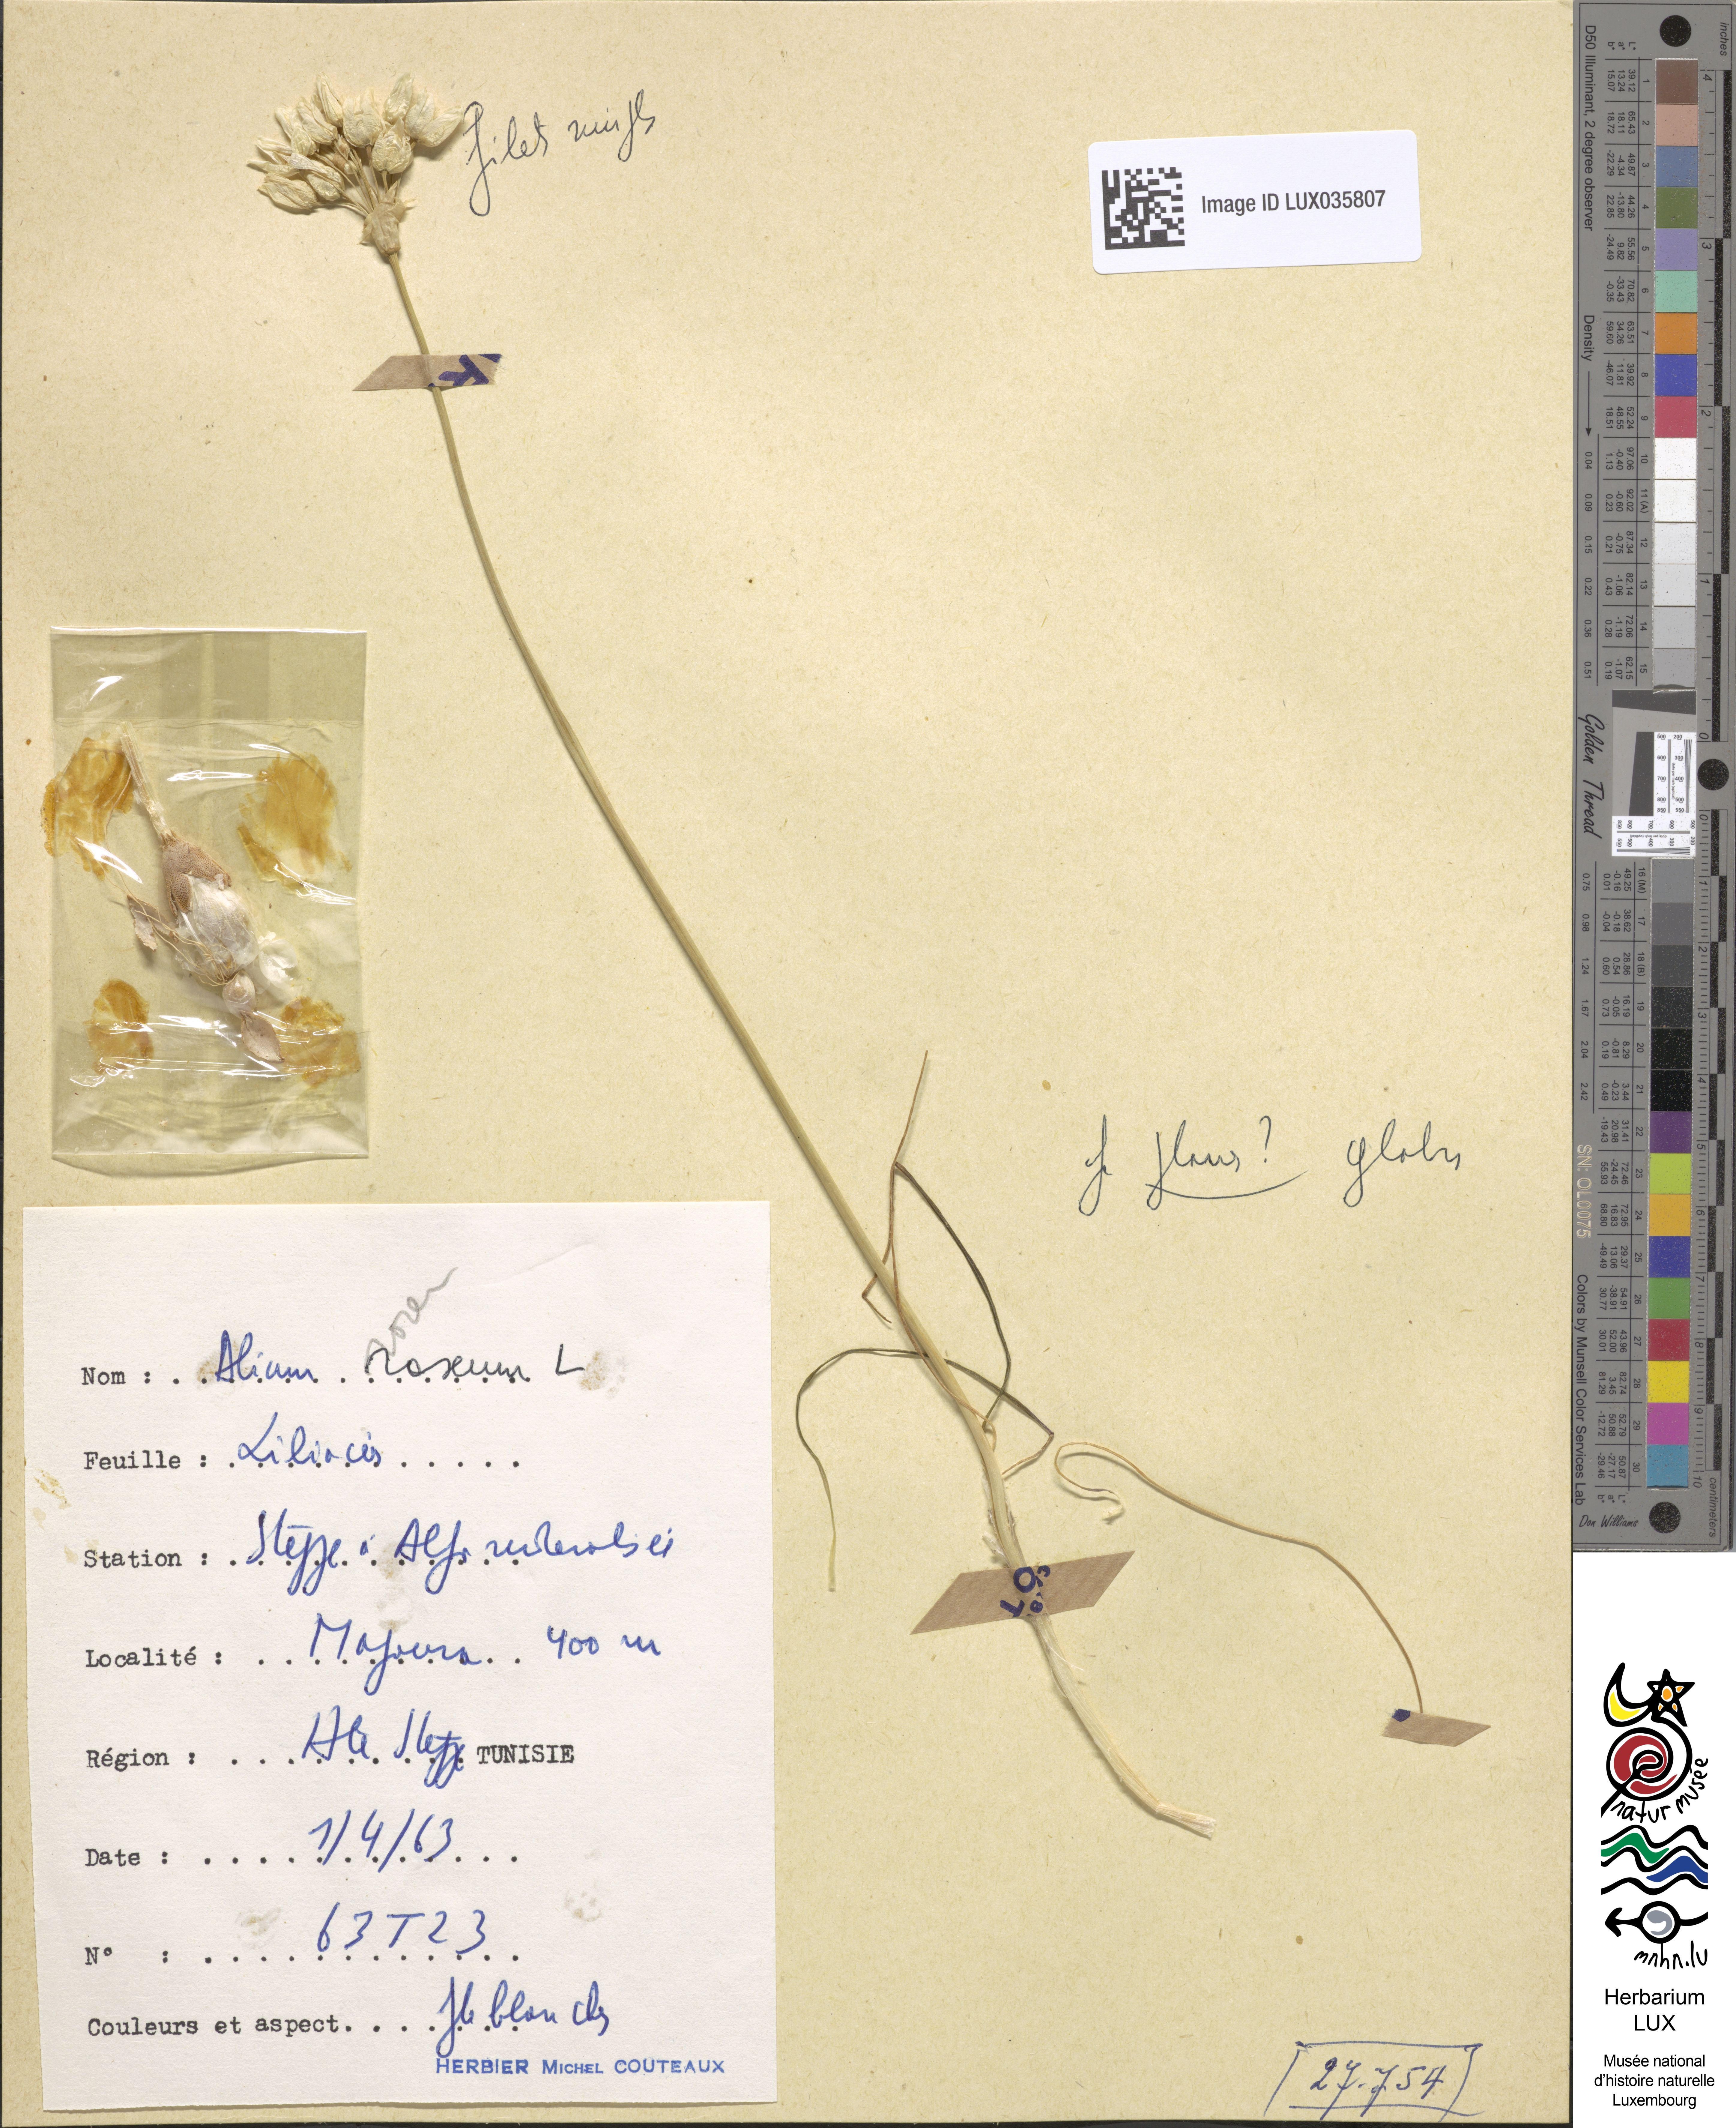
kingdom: Plantae
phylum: Tracheophyta
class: Liliopsida
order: Asparagales
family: Amaryllidaceae
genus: Allium
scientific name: Allium roseum
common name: Rosy garlic
